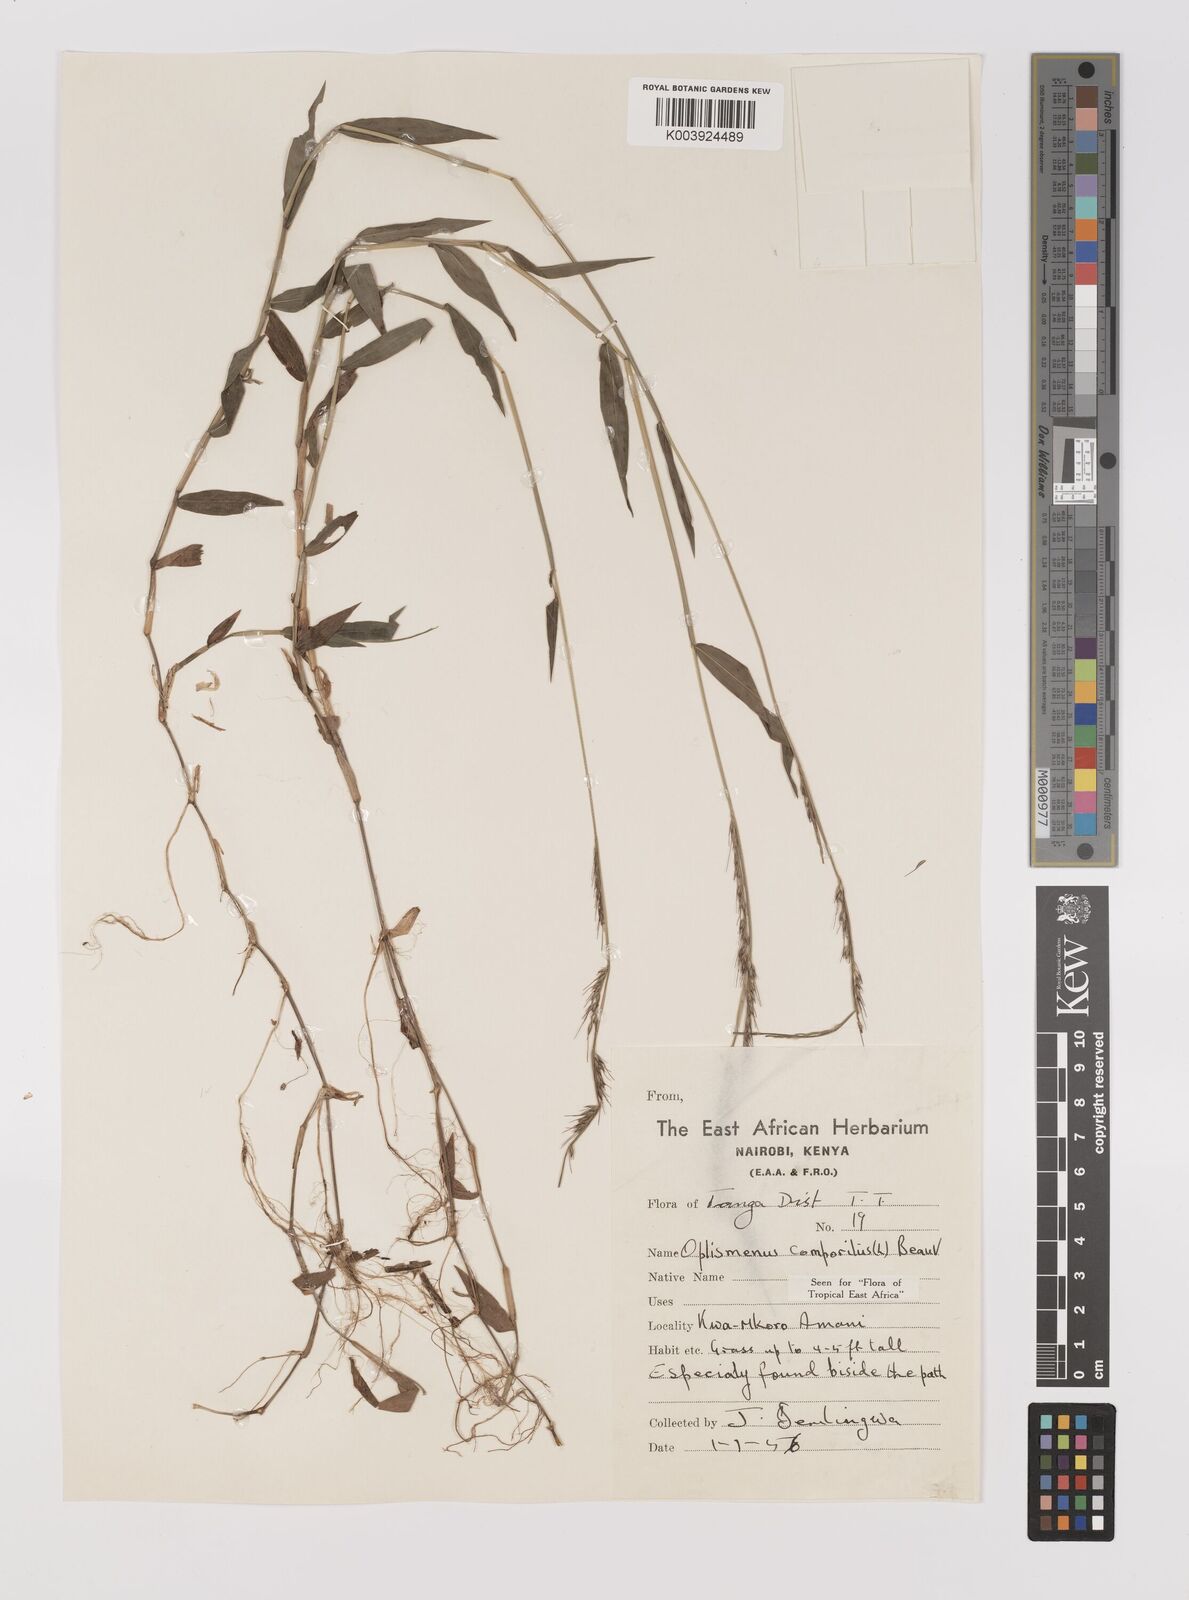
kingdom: Plantae
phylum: Tracheophyta
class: Liliopsida
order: Poales
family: Poaceae
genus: Oplismenus
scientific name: Oplismenus compositus
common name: Running mountain grass
